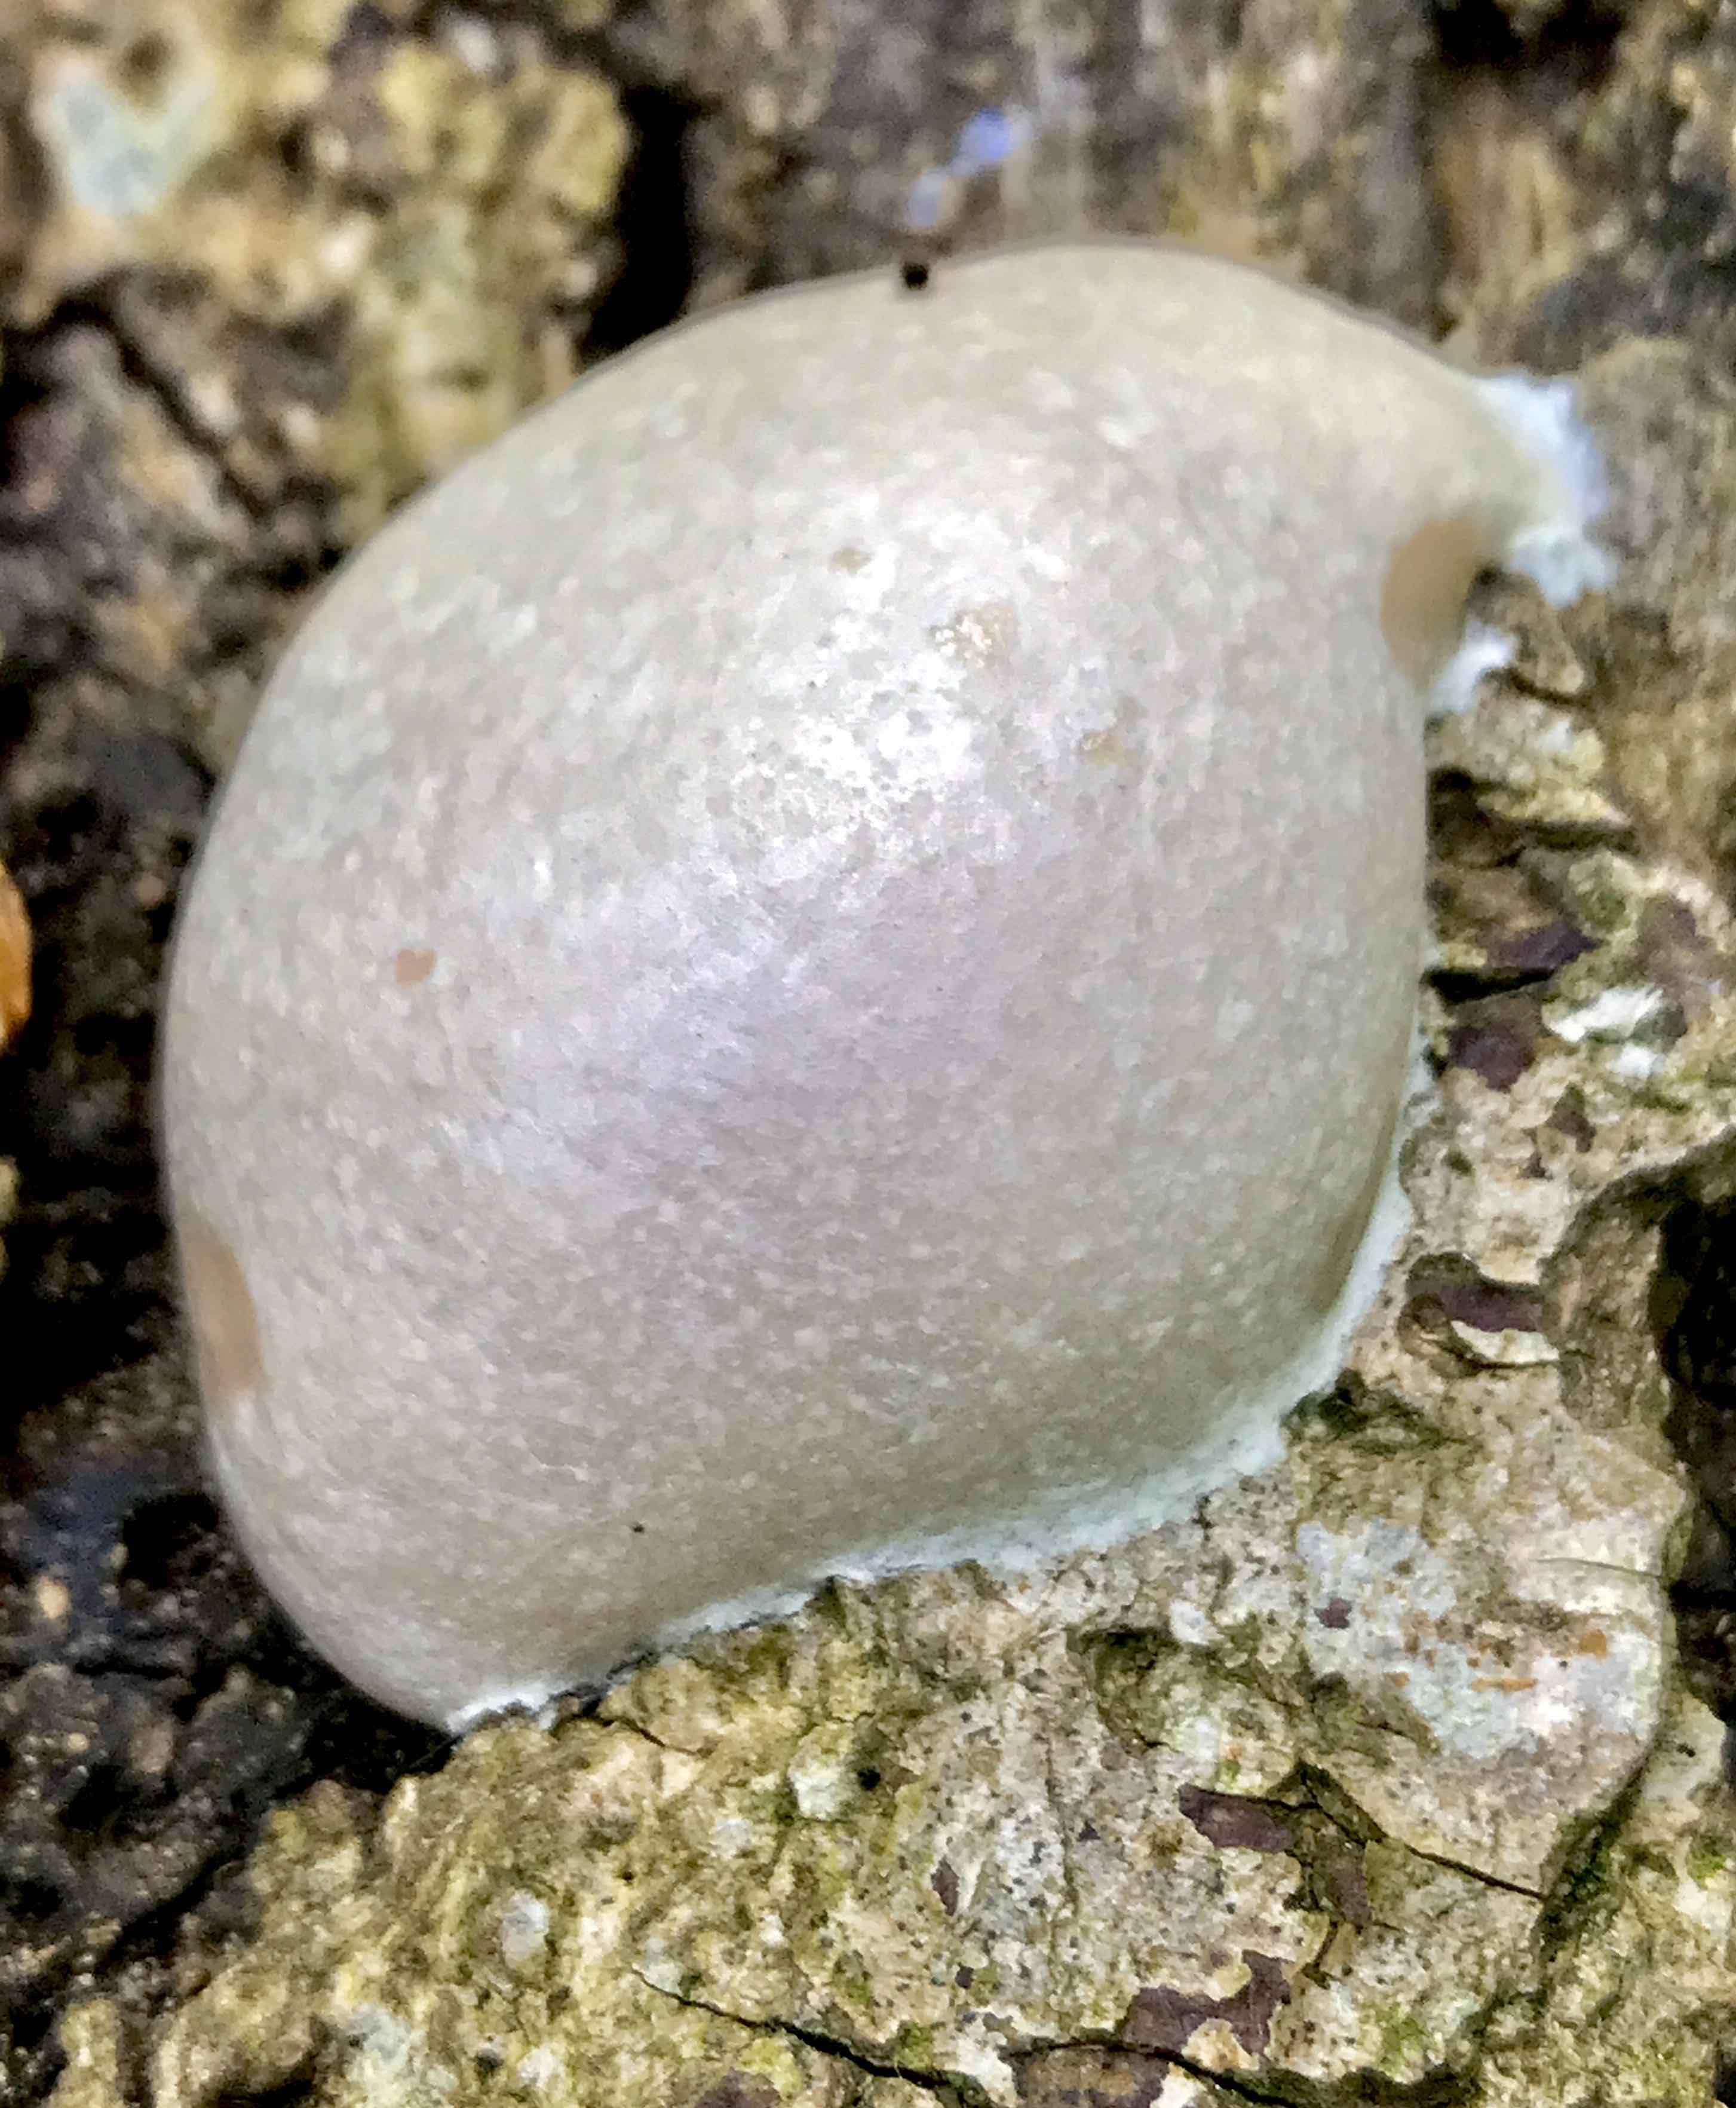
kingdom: Protozoa
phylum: Mycetozoa
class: Myxomycetes
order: Cribrariales
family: Tubiferaceae
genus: Reticularia
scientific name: Reticularia lycoperdon
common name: skinnende støvpude
